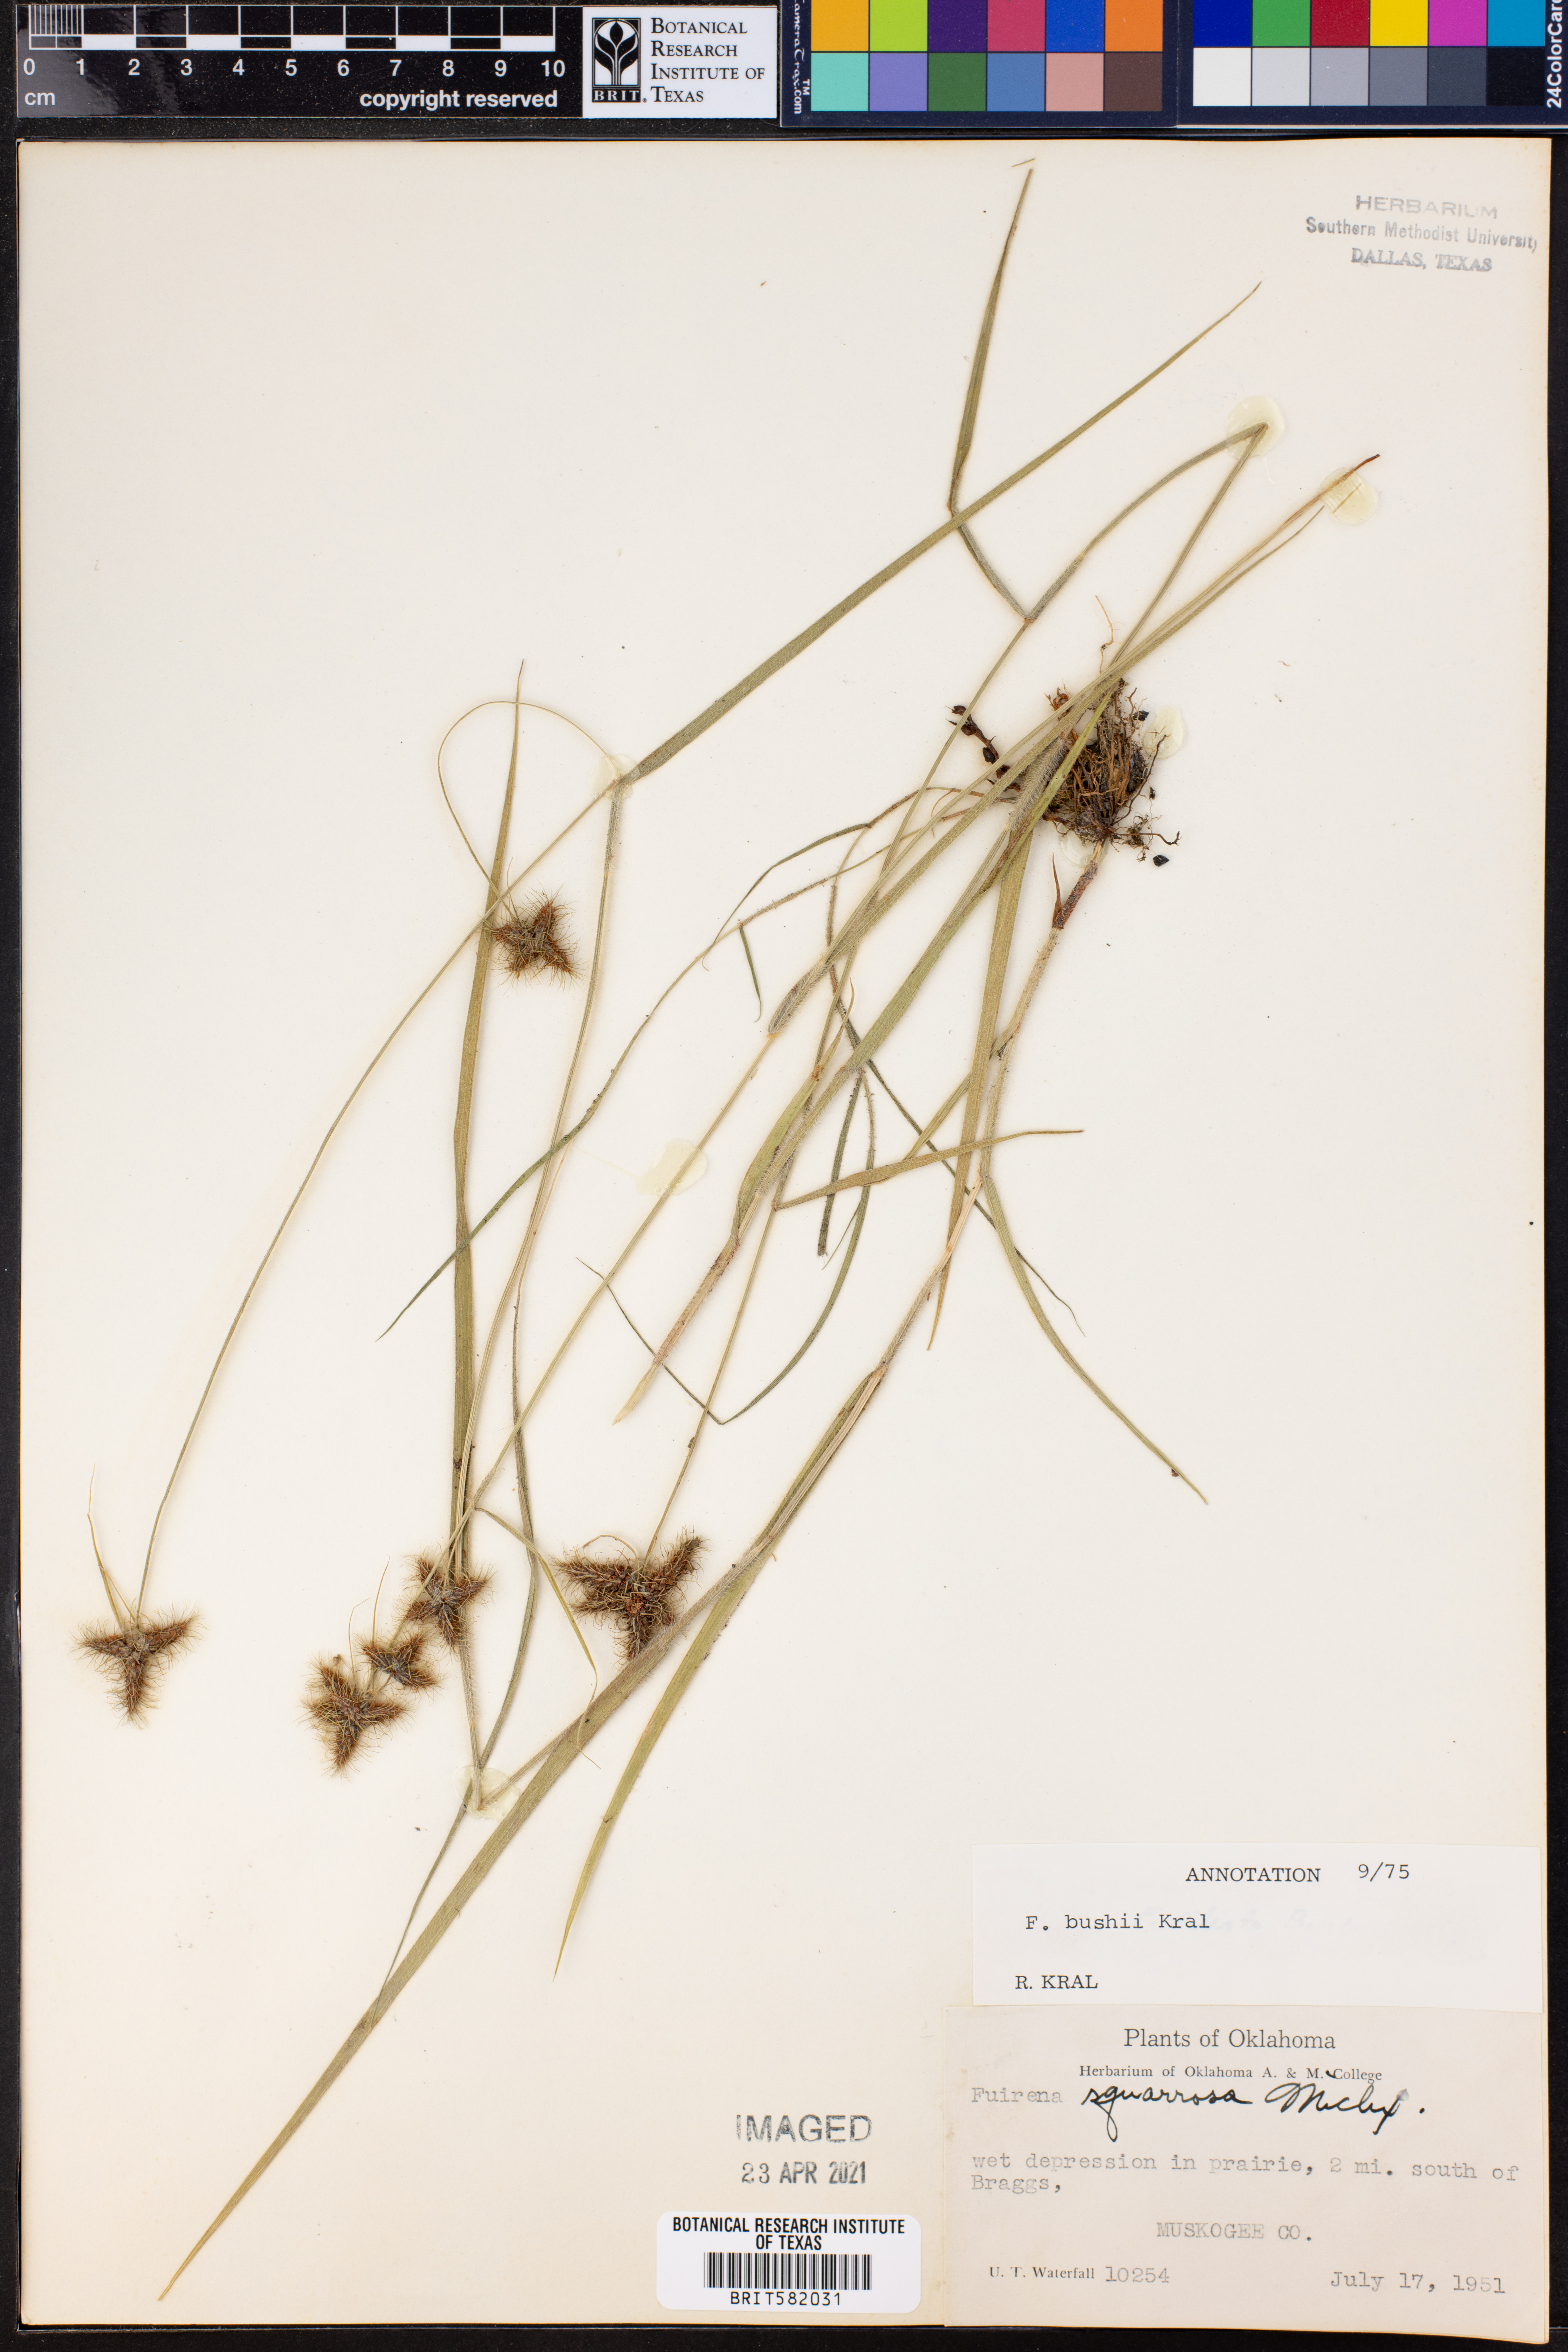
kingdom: Plantae
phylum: Tracheophyta
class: Liliopsida
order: Poales
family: Cyperaceae
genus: Fuirena
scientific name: Fuirena bushii
